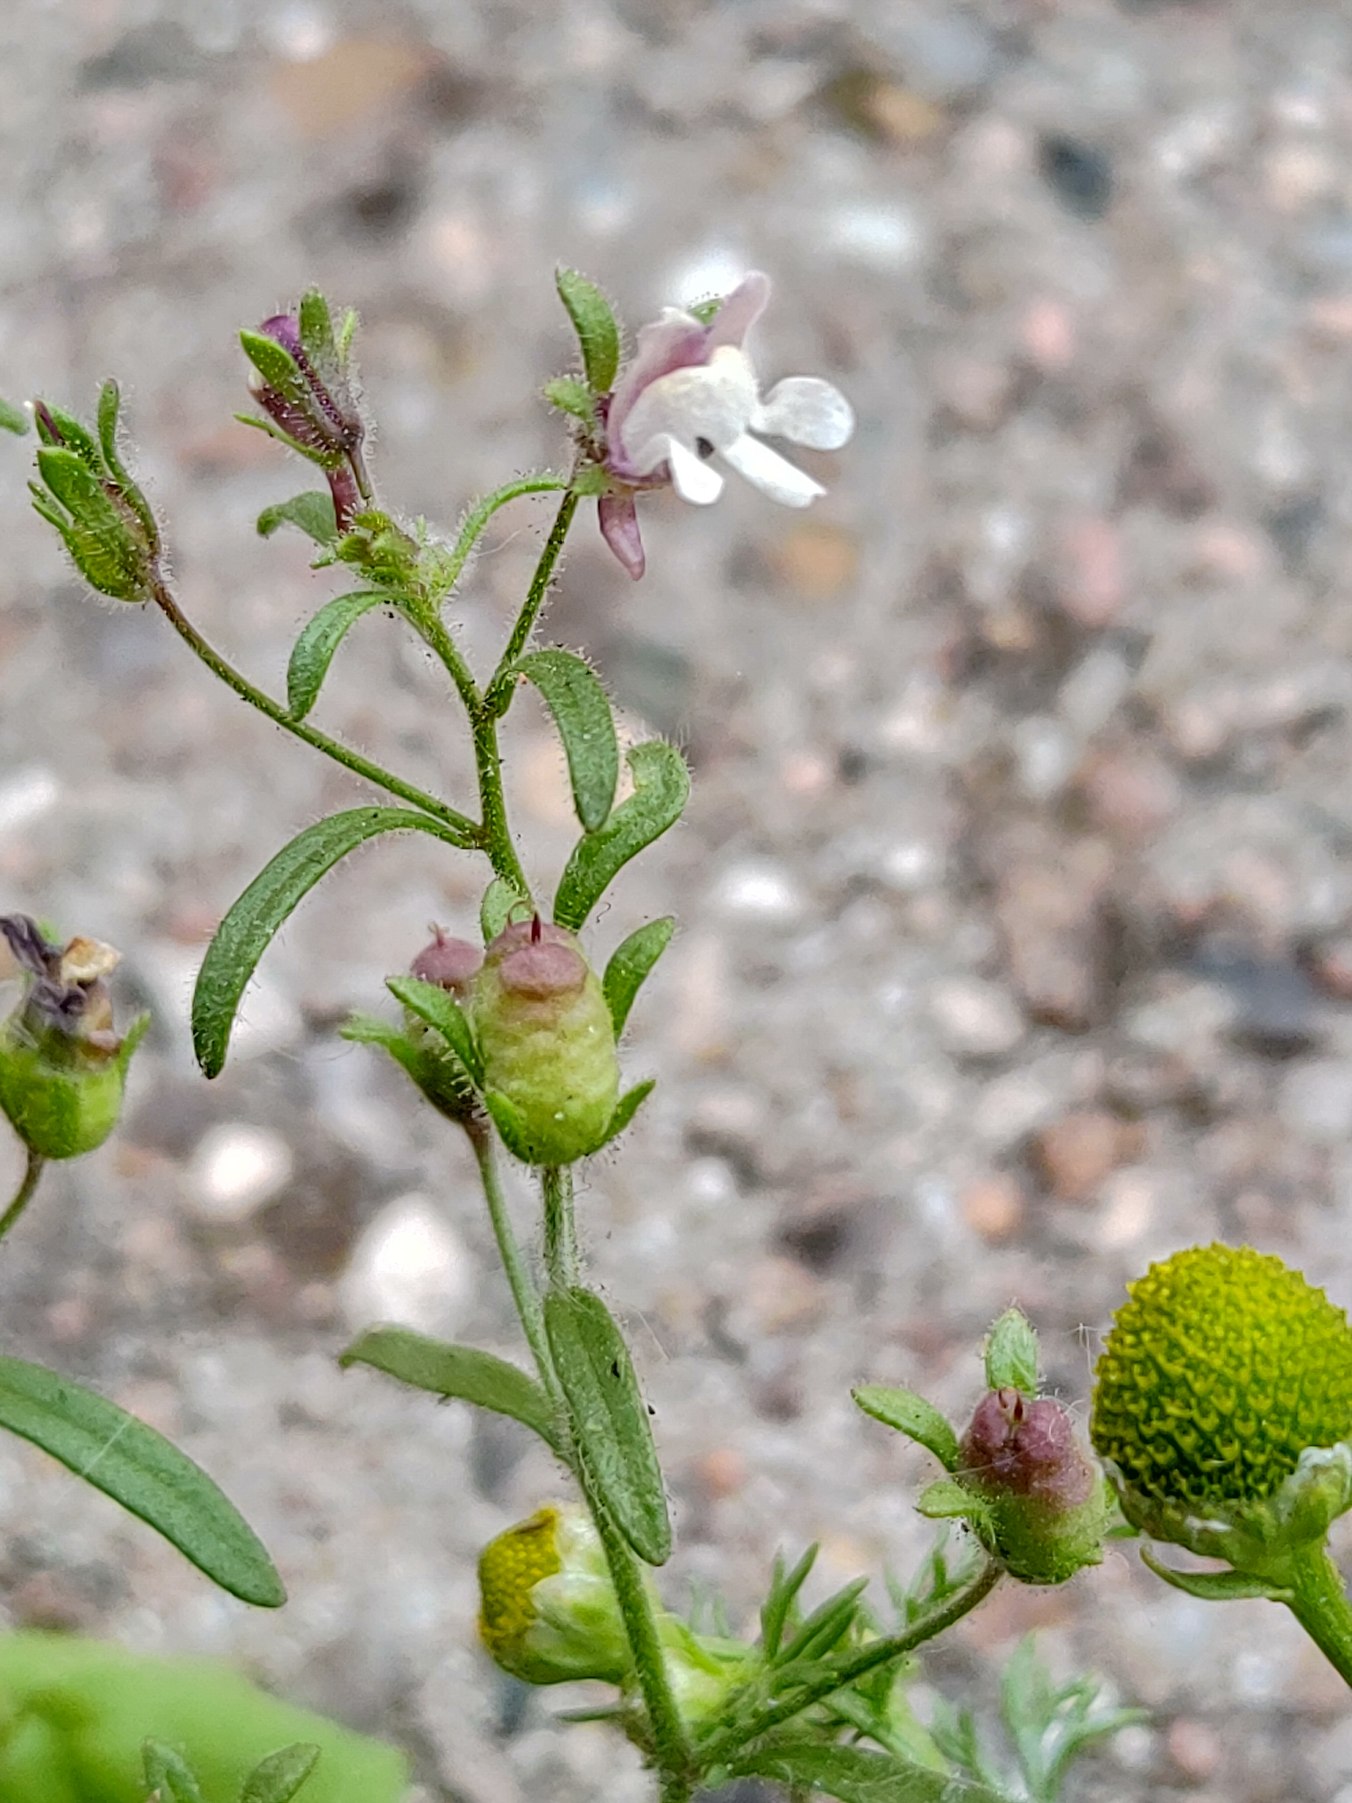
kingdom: Plantae
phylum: Tracheophyta
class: Magnoliopsida
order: Lamiales
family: Plantaginaceae
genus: Chaenorhinum
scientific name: Chaenorhinum minus
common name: Liden torskemund
